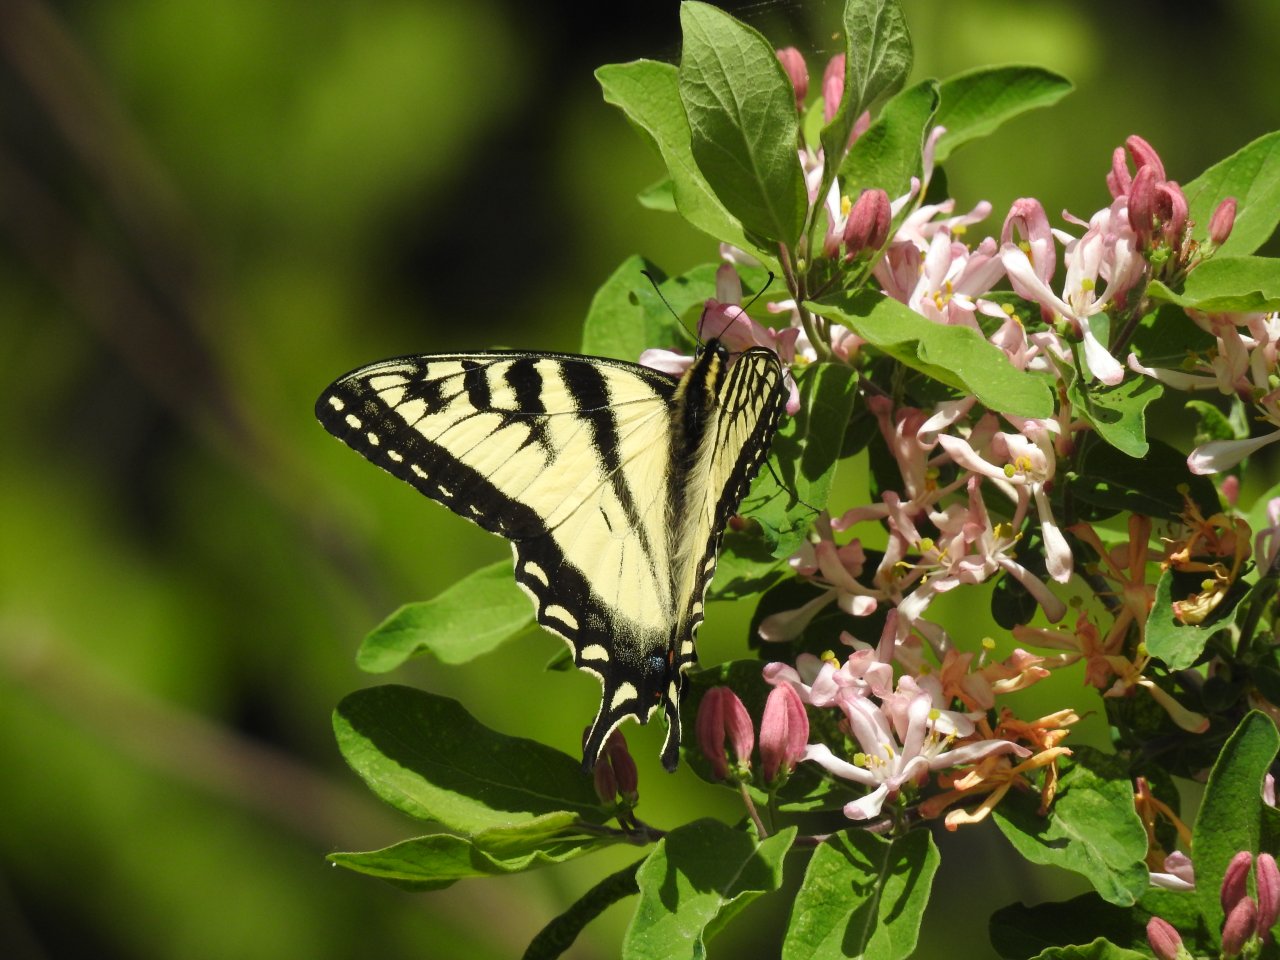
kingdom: Animalia
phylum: Arthropoda
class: Insecta
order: Lepidoptera
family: Papilionidae
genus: Pterourus
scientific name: Pterourus canadensis
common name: Canadian Tiger Swallowtail
